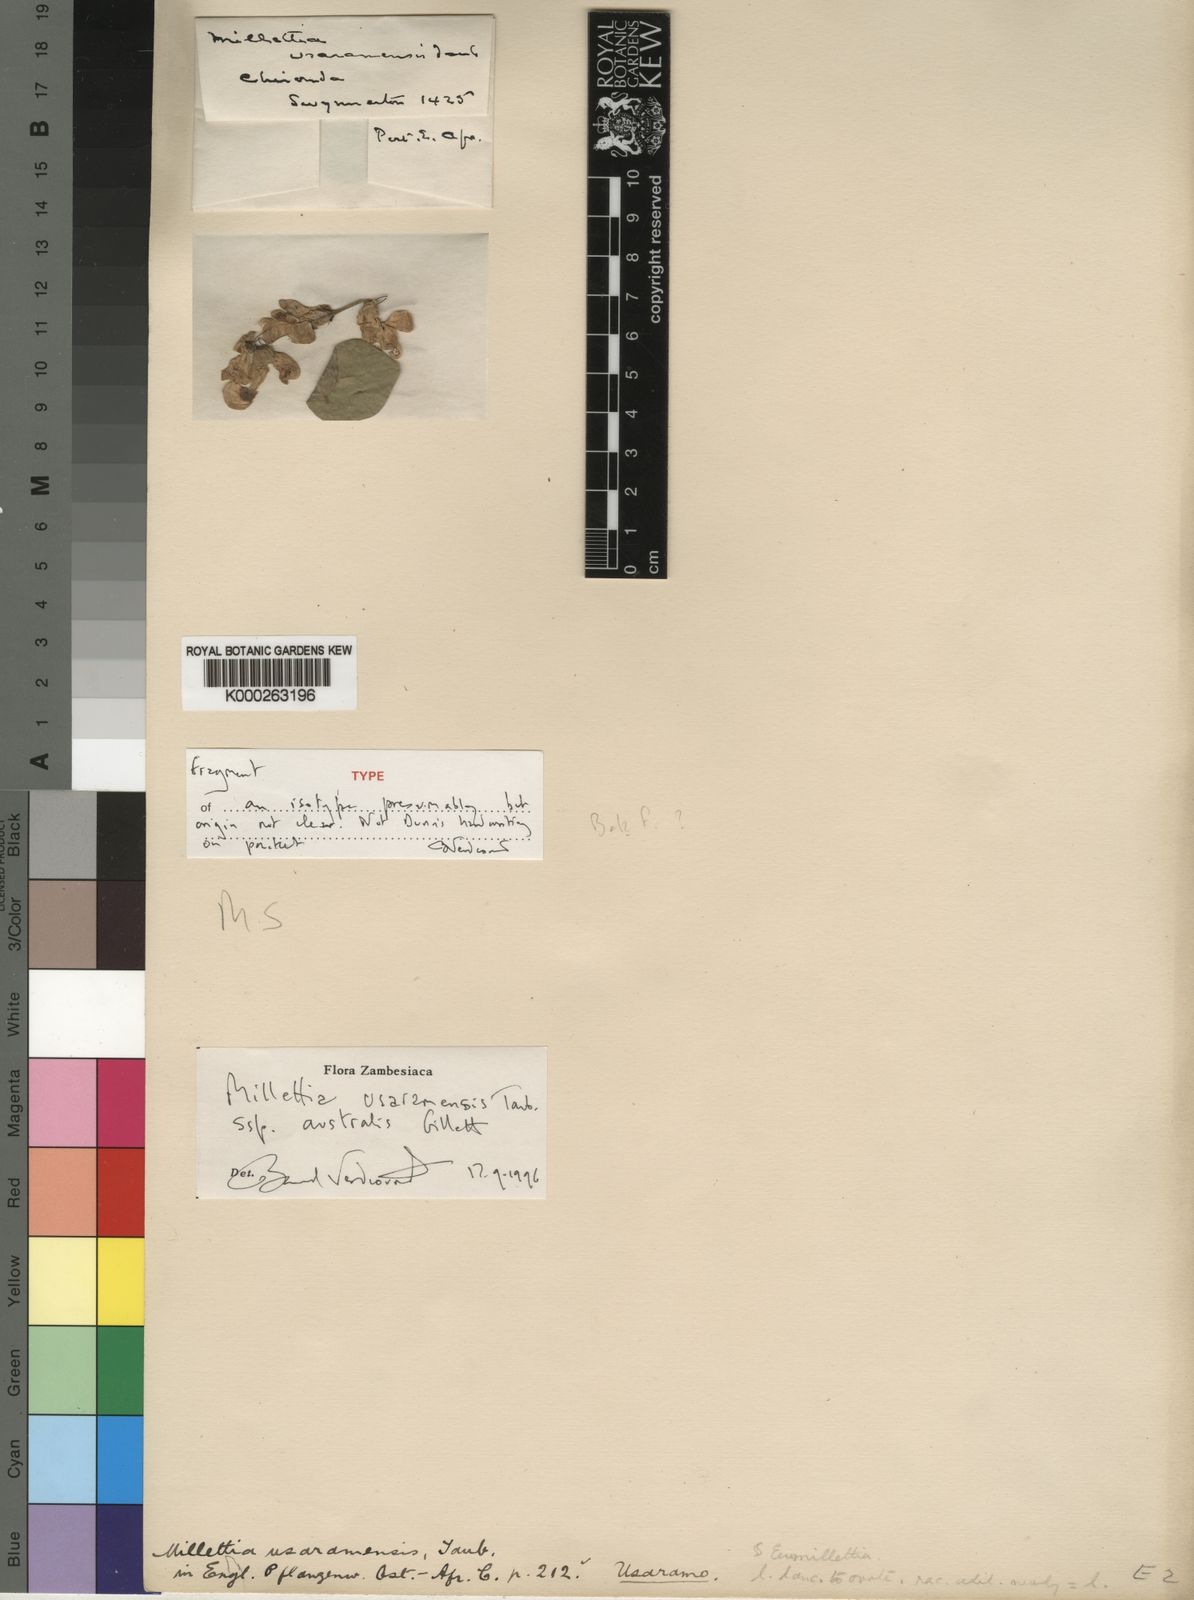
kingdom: Plantae
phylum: Tracheophyta
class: Magnoliopsida
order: Fabales
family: Fabaceae
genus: Millettia
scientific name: Millettia usaramensis
